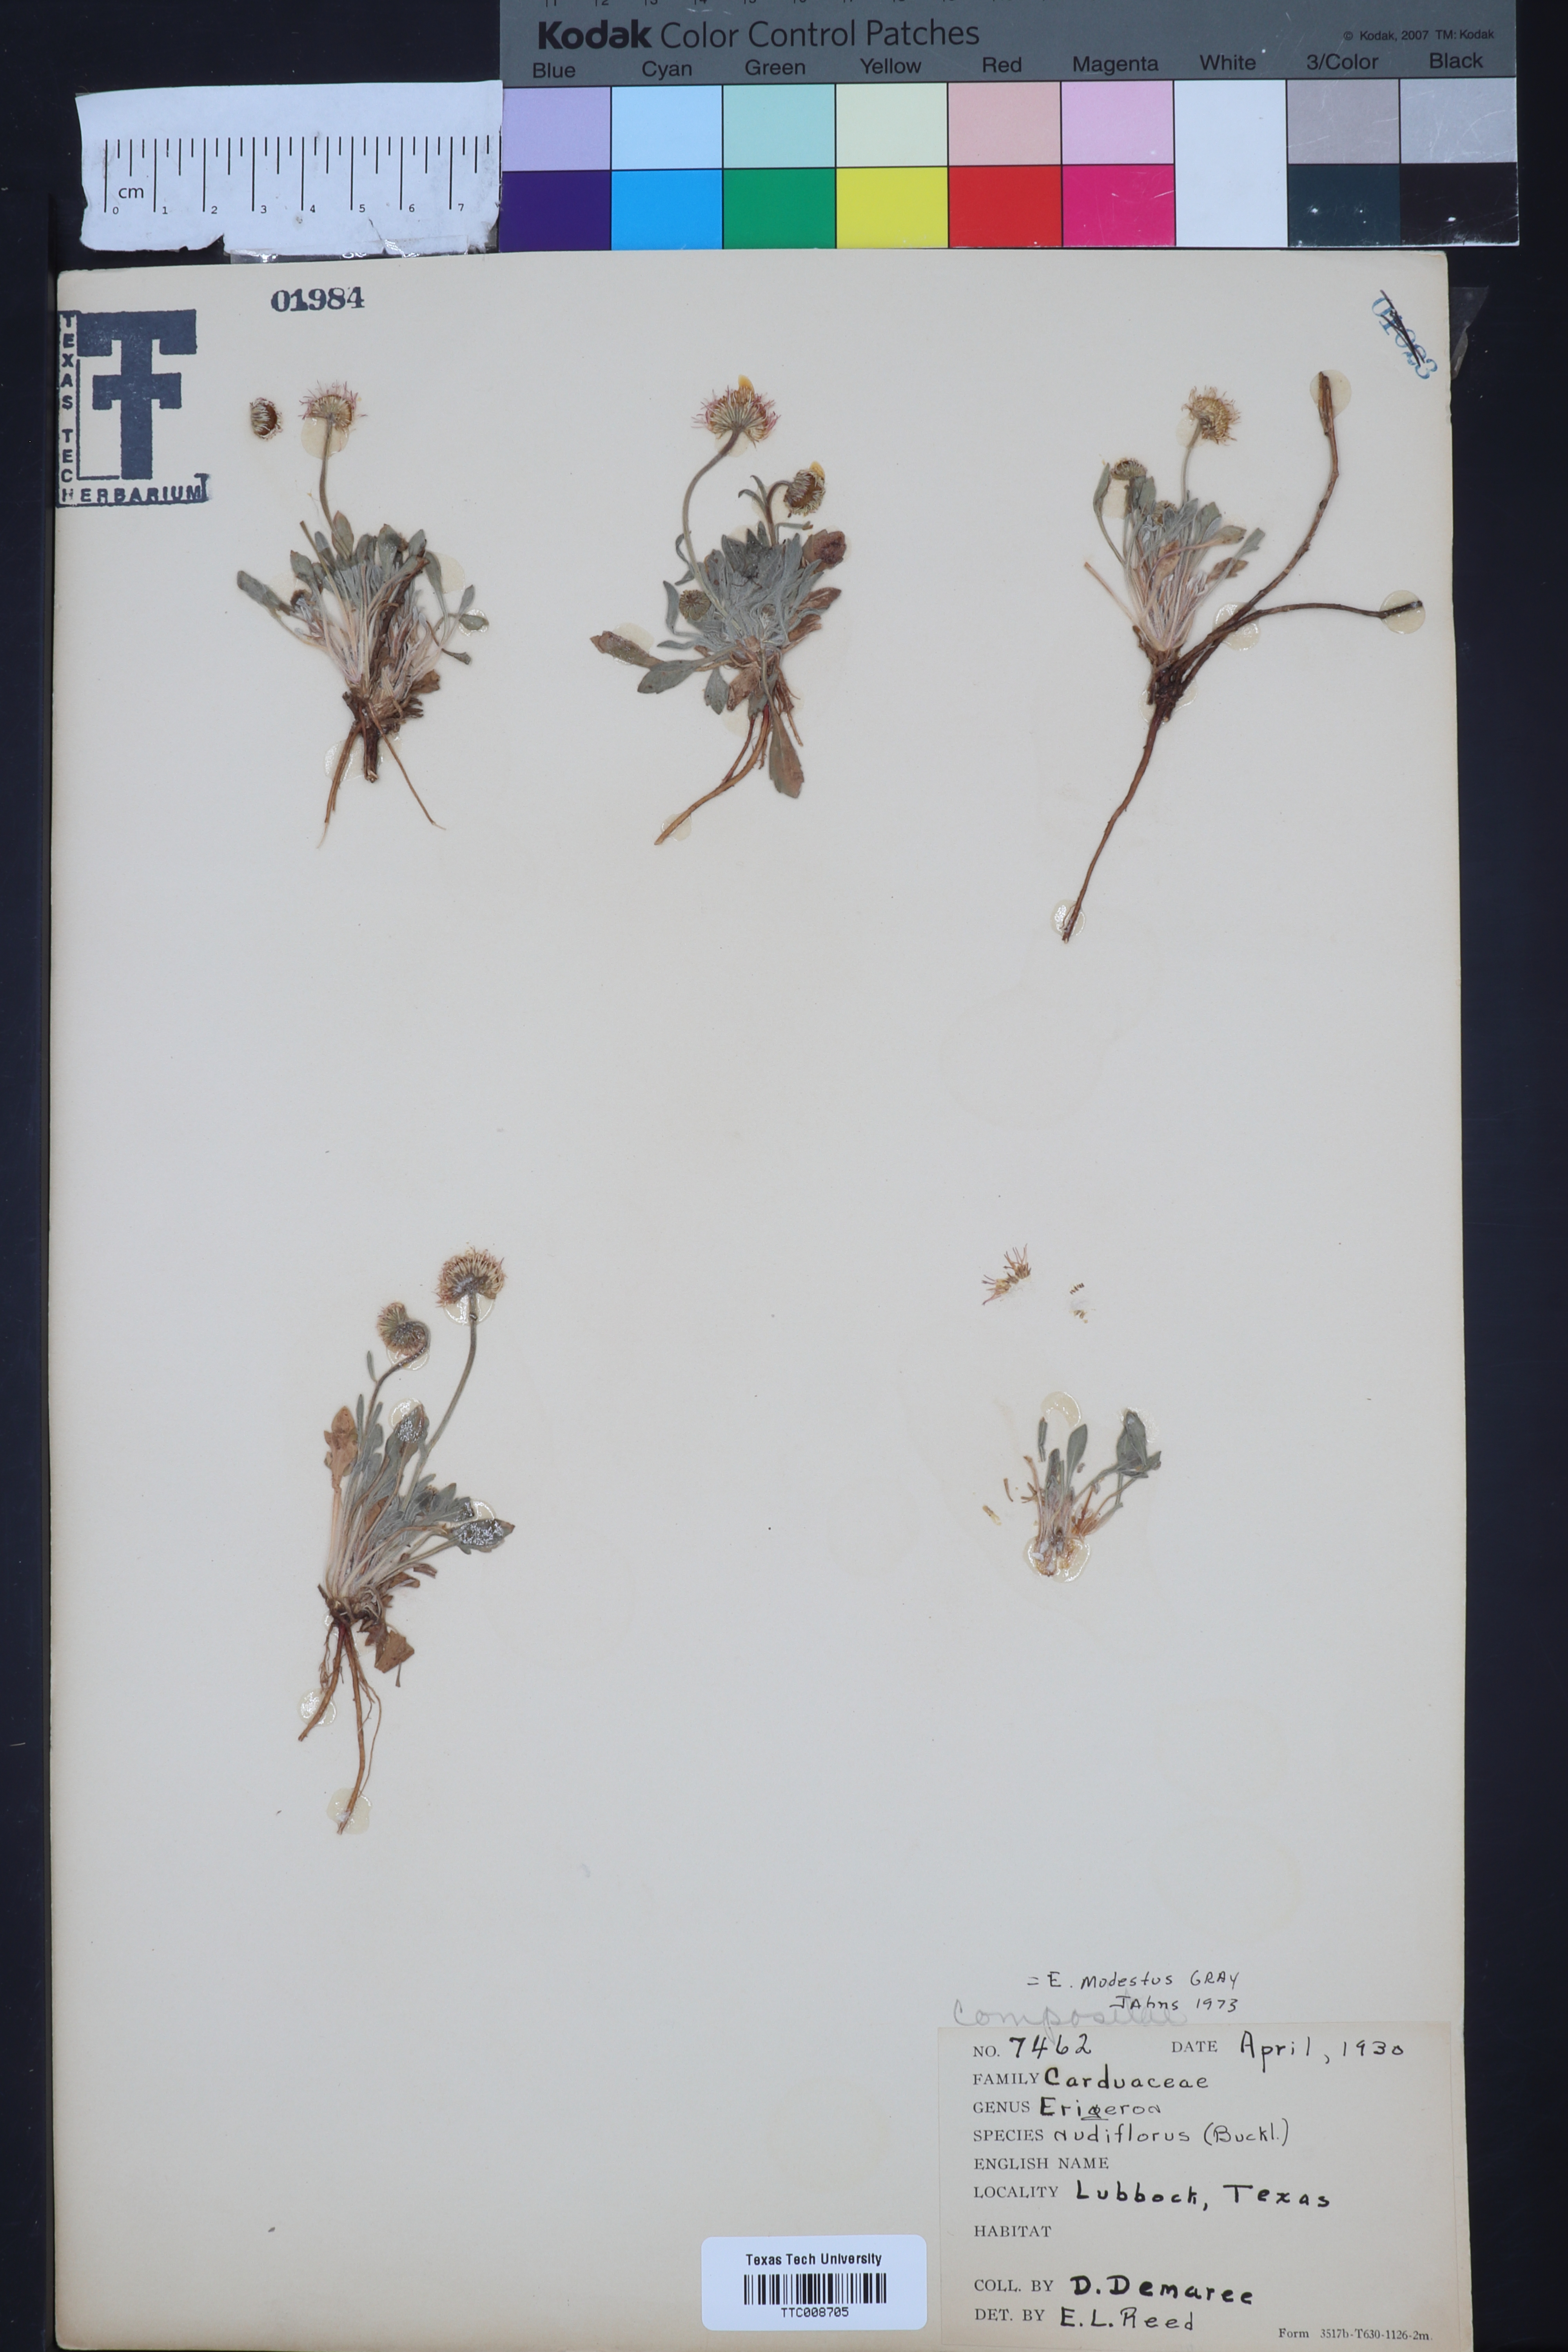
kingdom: Plantae
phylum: Tracheophyta
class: Magnoliopsida
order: Asterales
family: Asteraceae
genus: Erigeron
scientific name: Erigeron modestus
